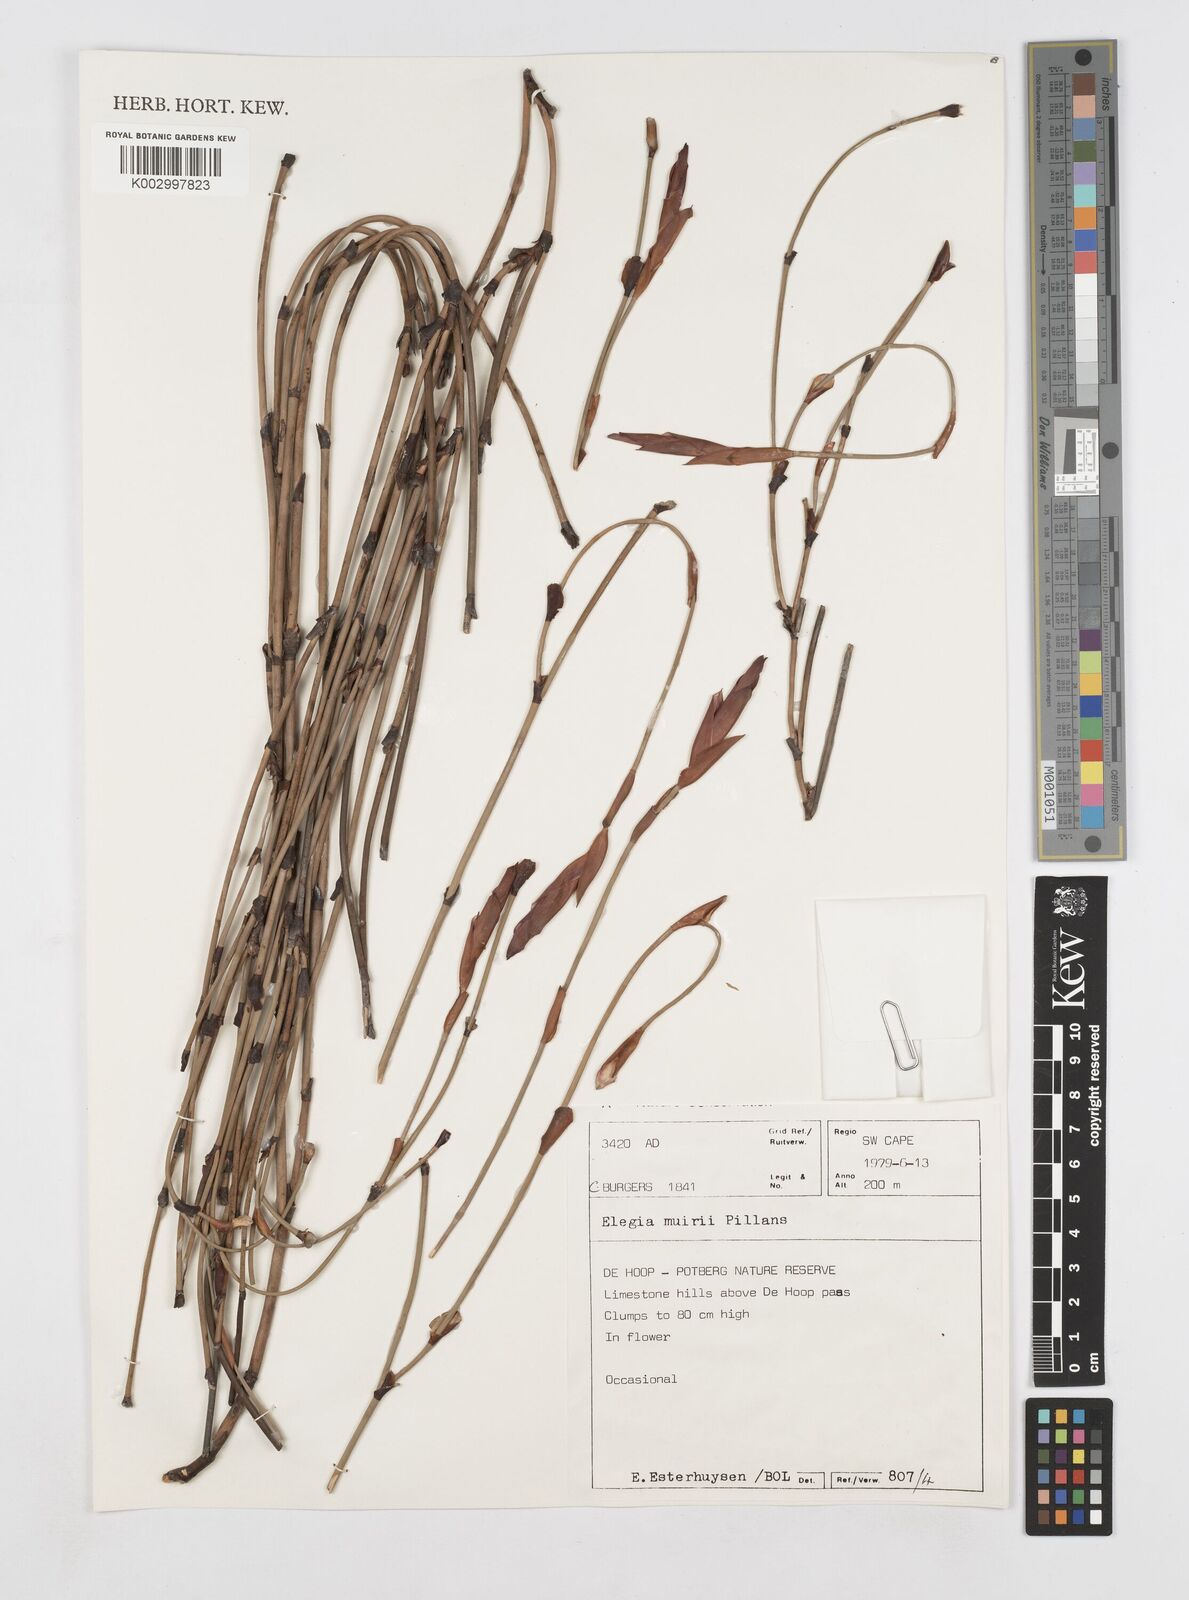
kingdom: Plantae
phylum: Tracheophyta
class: Liliopsida
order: Poales
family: Restionaceae
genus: Elegia
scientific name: Elegia muirii
